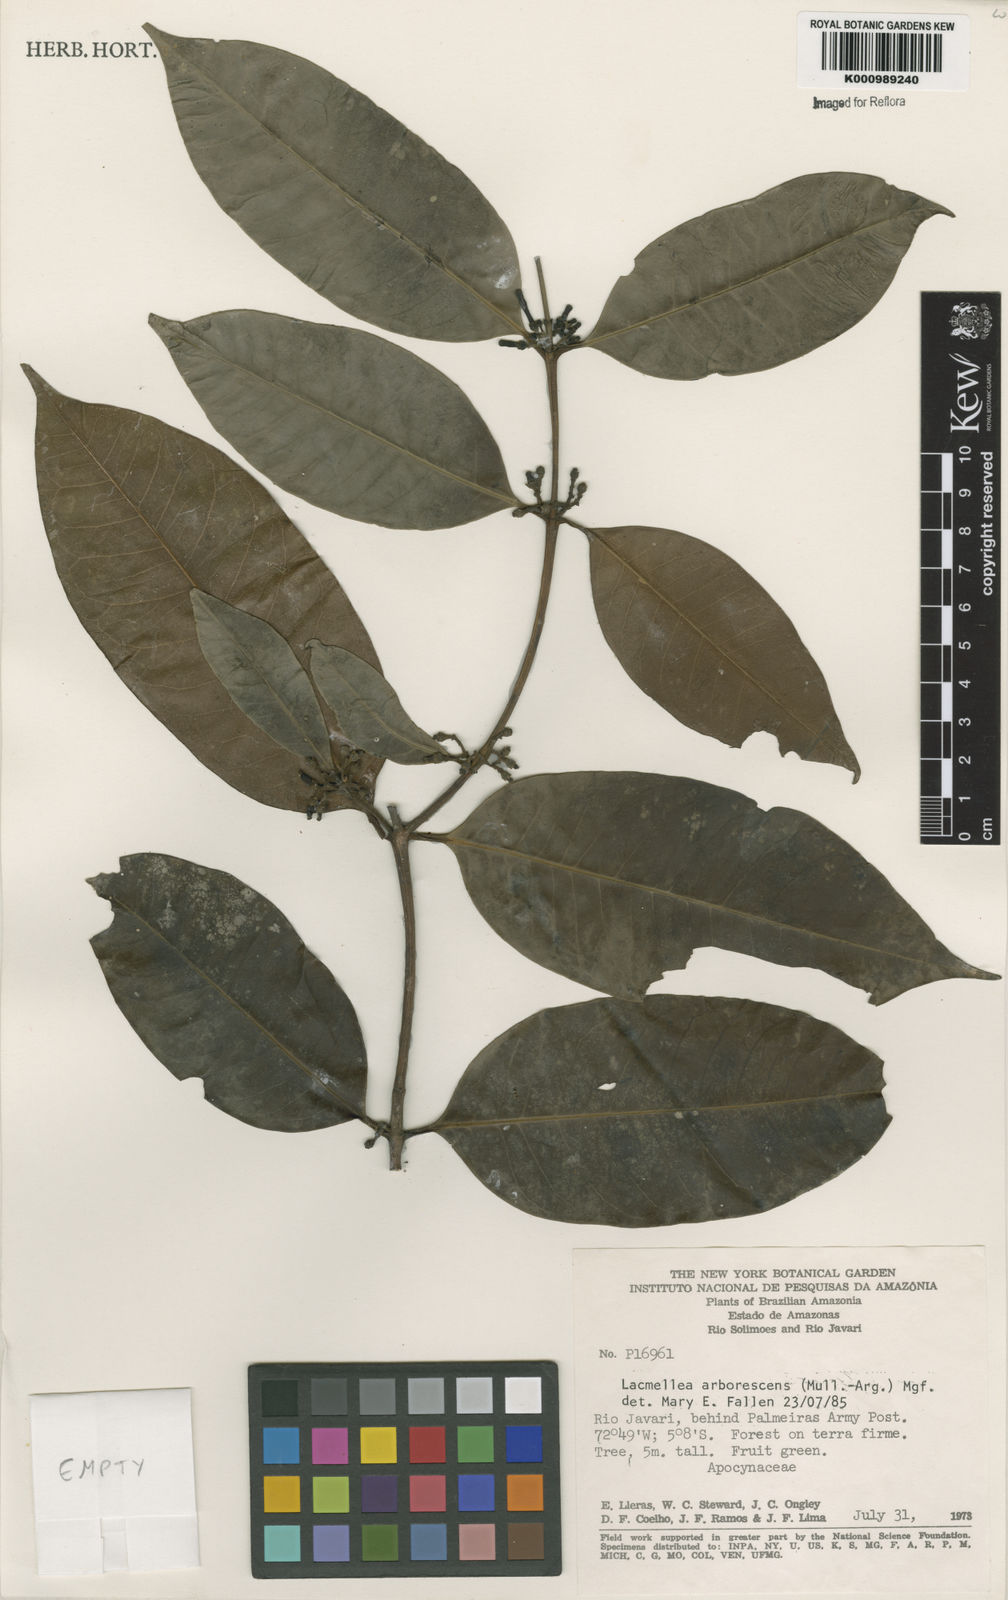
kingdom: Plantae
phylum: Tracheophyta
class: Magnoliopsida
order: Gentianales
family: Apocynaceae
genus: Lacmellea
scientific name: Lacmellea
